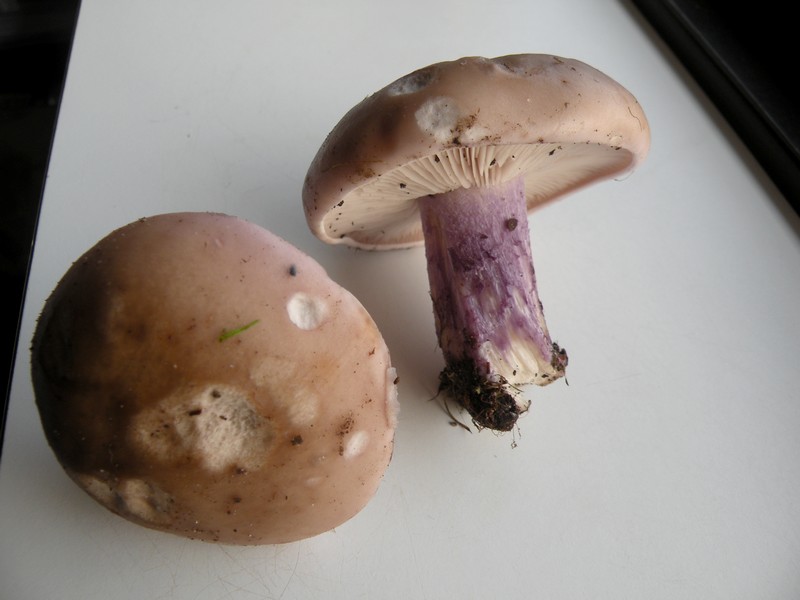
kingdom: Fungi
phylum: Basidiomycota
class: Agaricomycetes
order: Agaricales
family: Tricholomataceae
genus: Lepista
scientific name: Lepista personata
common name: bleg hekseringshat
